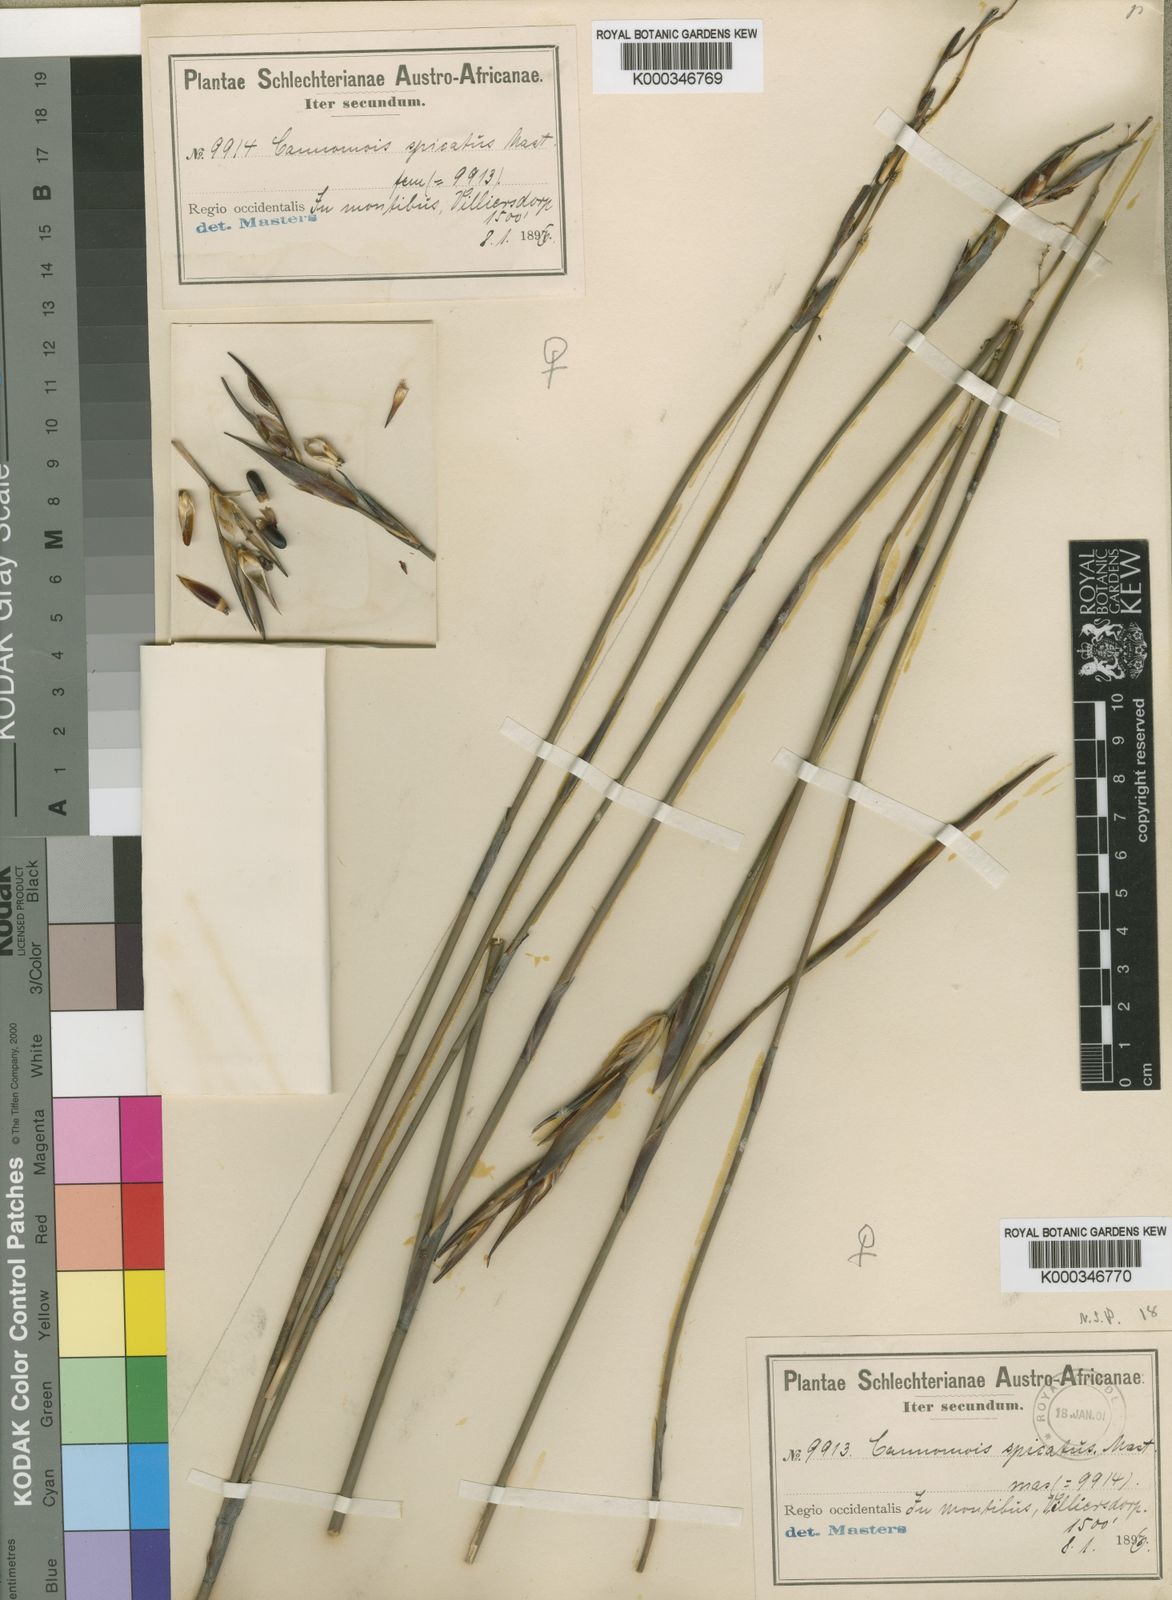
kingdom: Plantae
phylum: Tracheophyta
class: Liliopsida
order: Poales
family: Restionaceae
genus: Cannomois
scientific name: Cannomois parviflora
